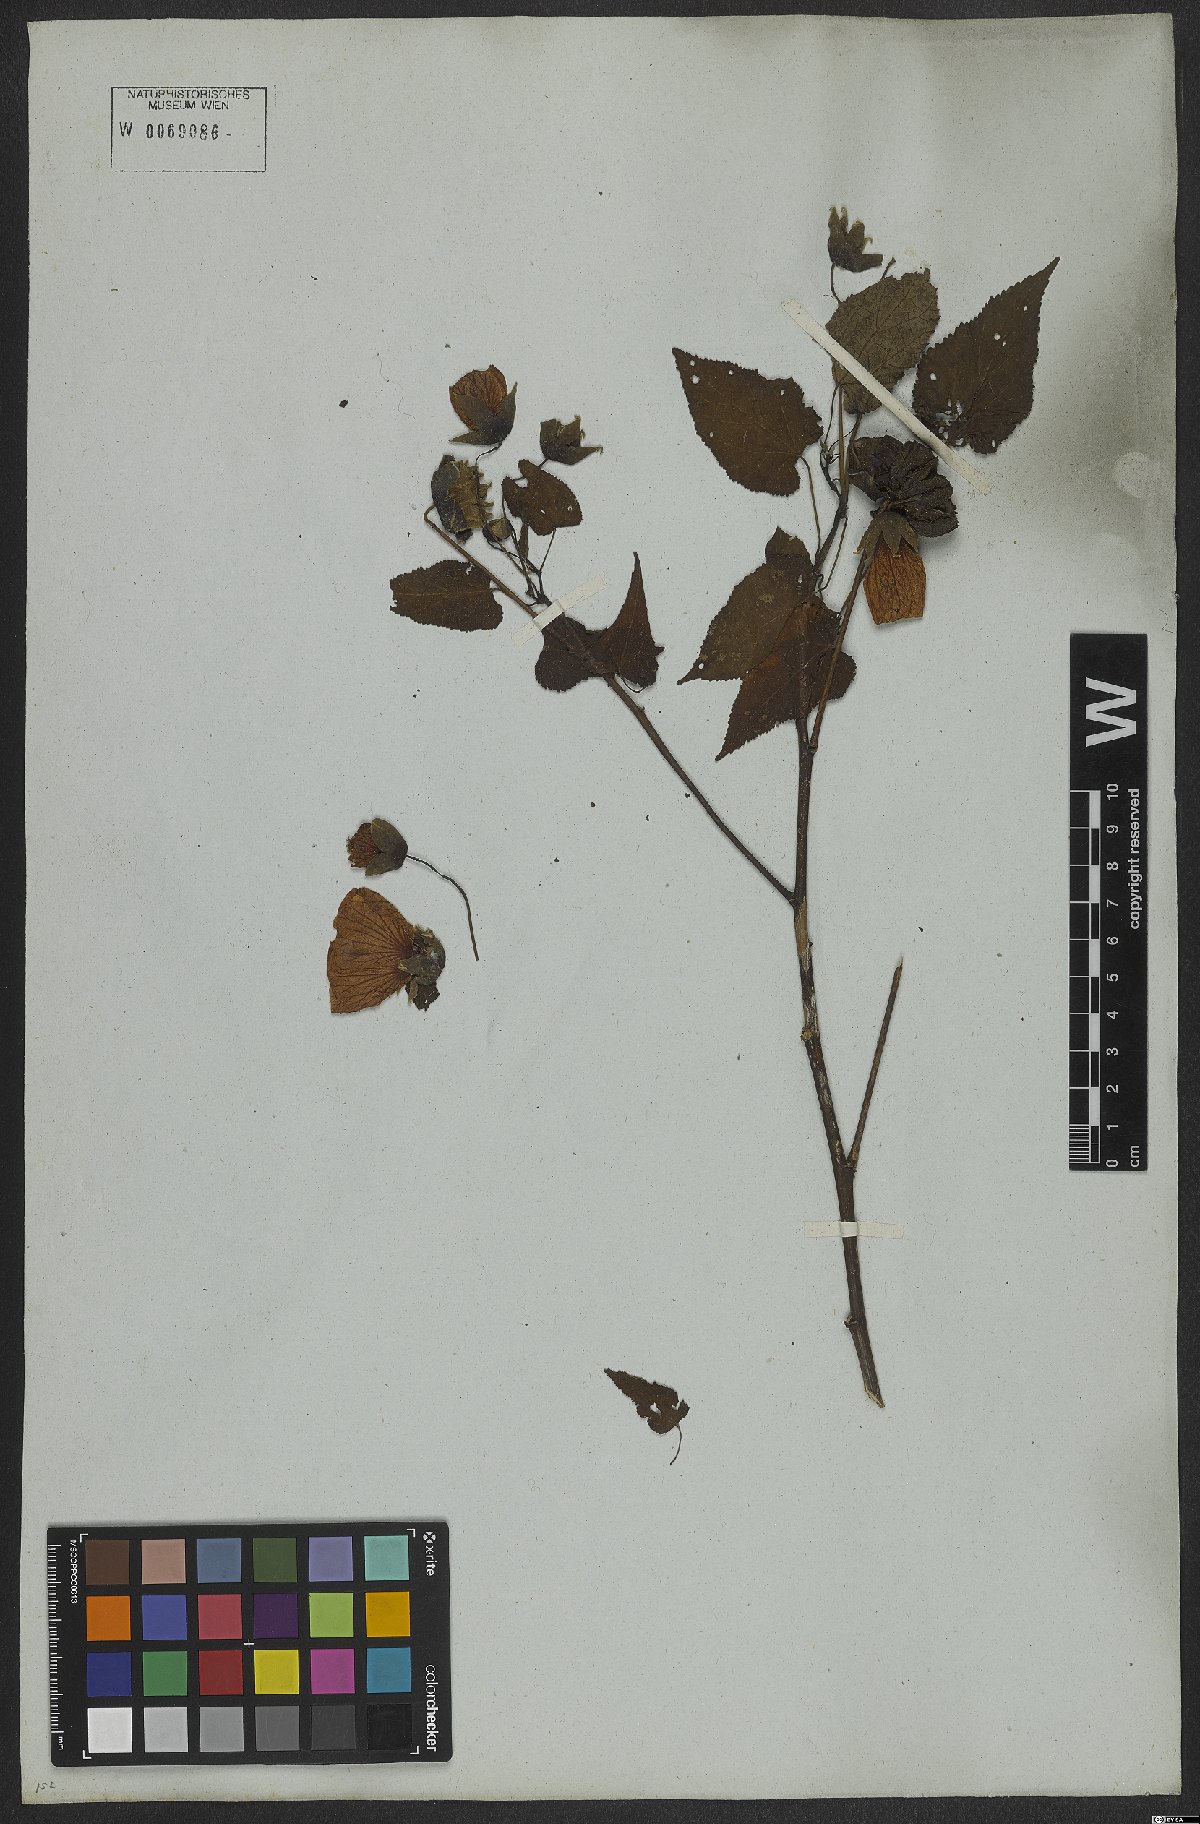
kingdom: Plantae
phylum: Tracheophyta
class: Magnoliopsida
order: Malvales
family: Malvaceae
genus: Callianthe
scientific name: Callianthe bedfordiana
